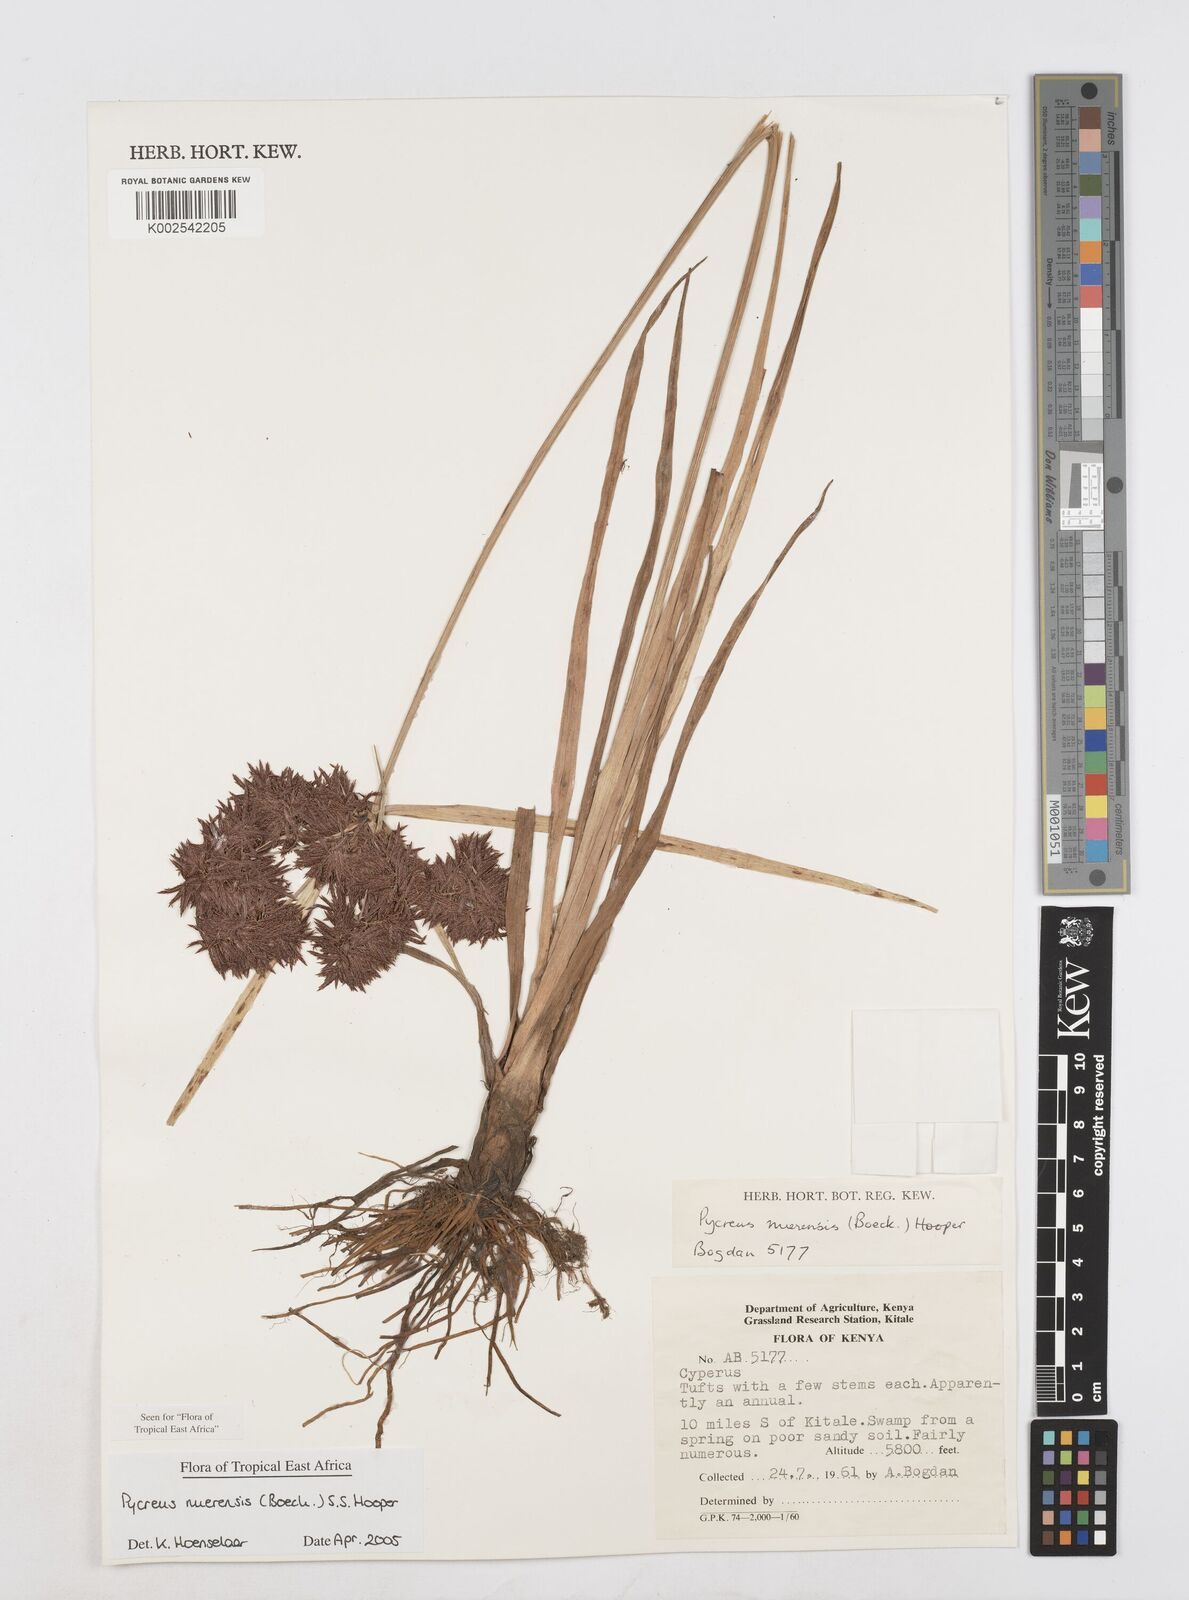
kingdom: Plantae
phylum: Tracheophyta
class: Liliopsida
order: Poales
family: Cyperaceae
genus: Cyperus
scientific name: Cyperus nuerensis
